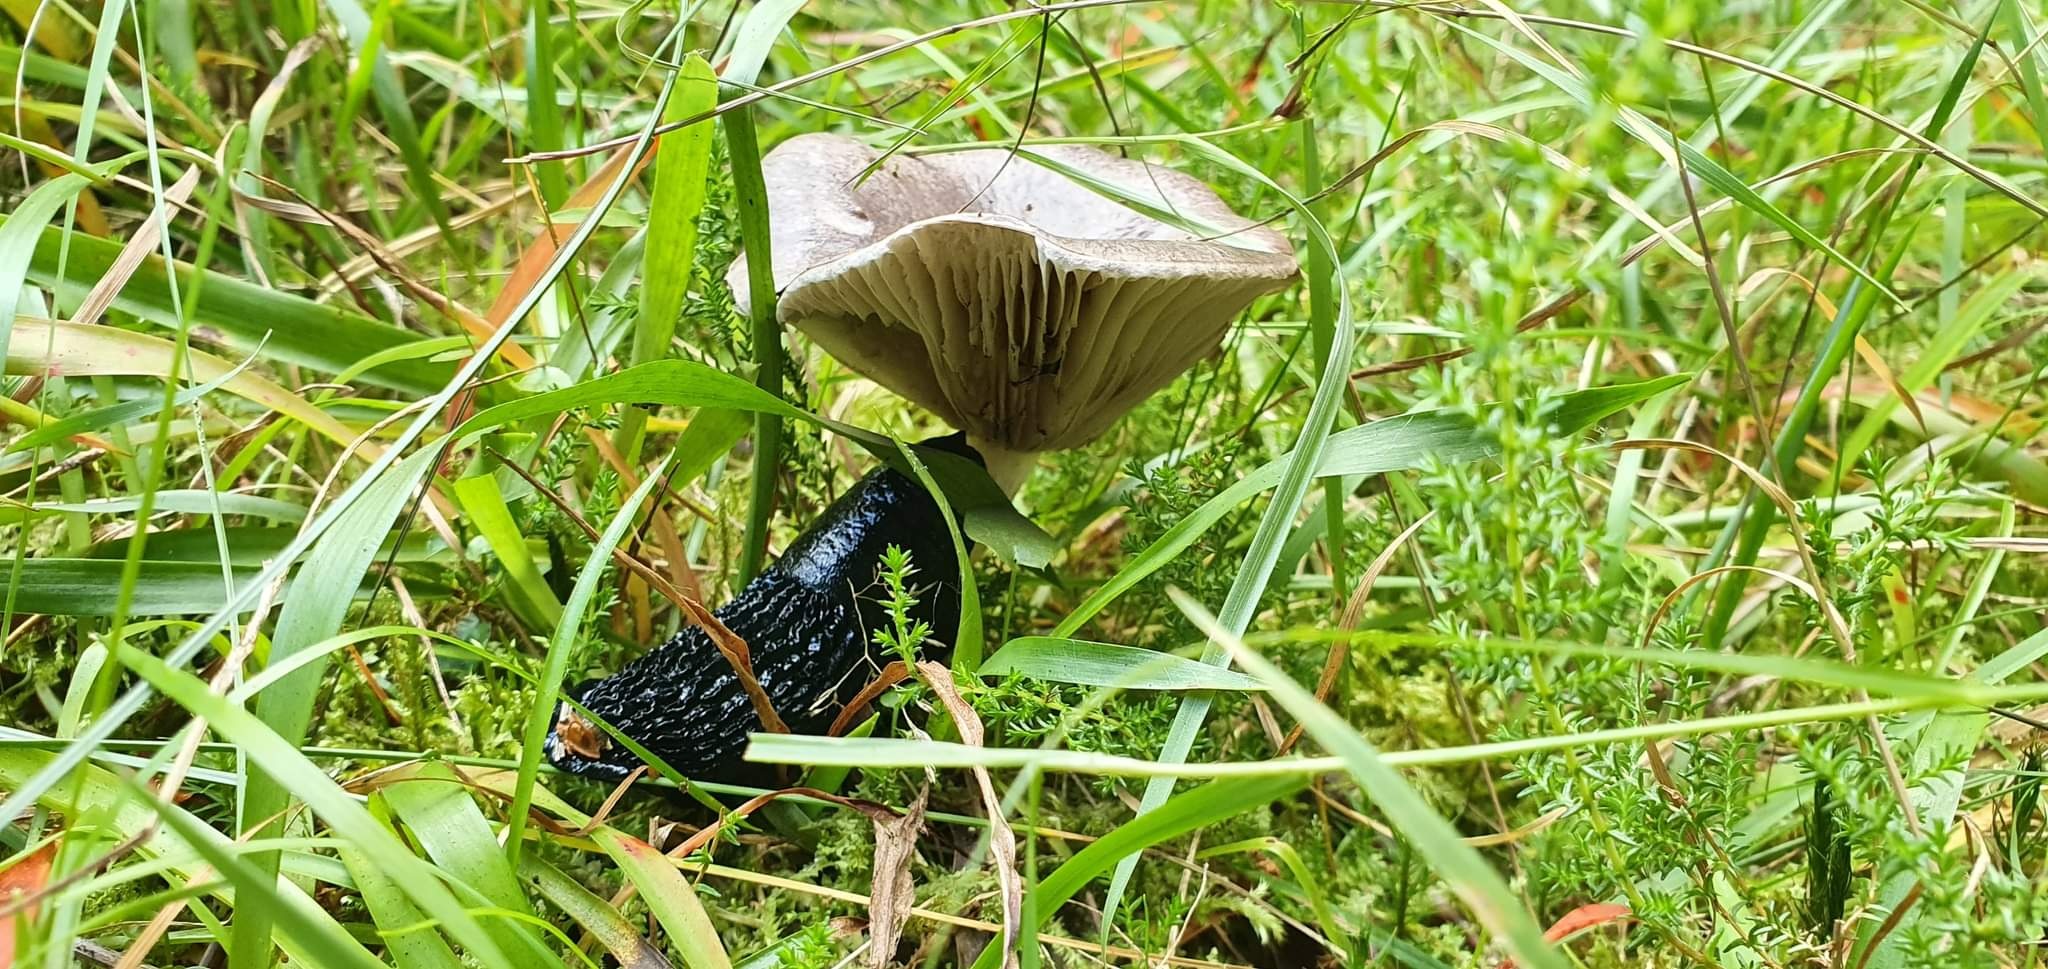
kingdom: Fungi
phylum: Basidiomycota
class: Agaricomycetes
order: Boletales
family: Gomphidiaceae
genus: Gomphidius
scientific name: Gomphidius glutinosus
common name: grå slimslør
